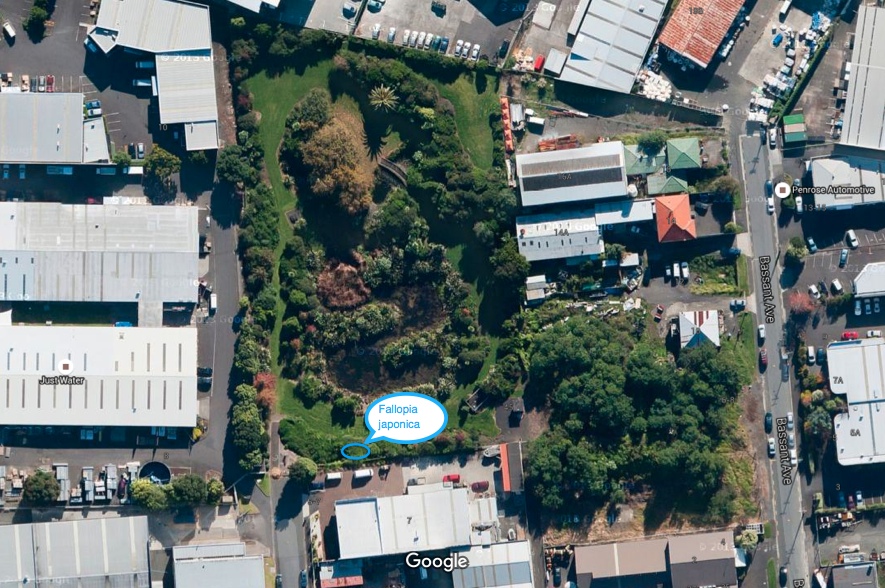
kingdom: Plantae
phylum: Tracheophyta
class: Magnoliopsida
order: Caryophyllales
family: Polygonaceae
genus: Reynoutria
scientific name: Reynoutria japonica
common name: Japanese knotweed
